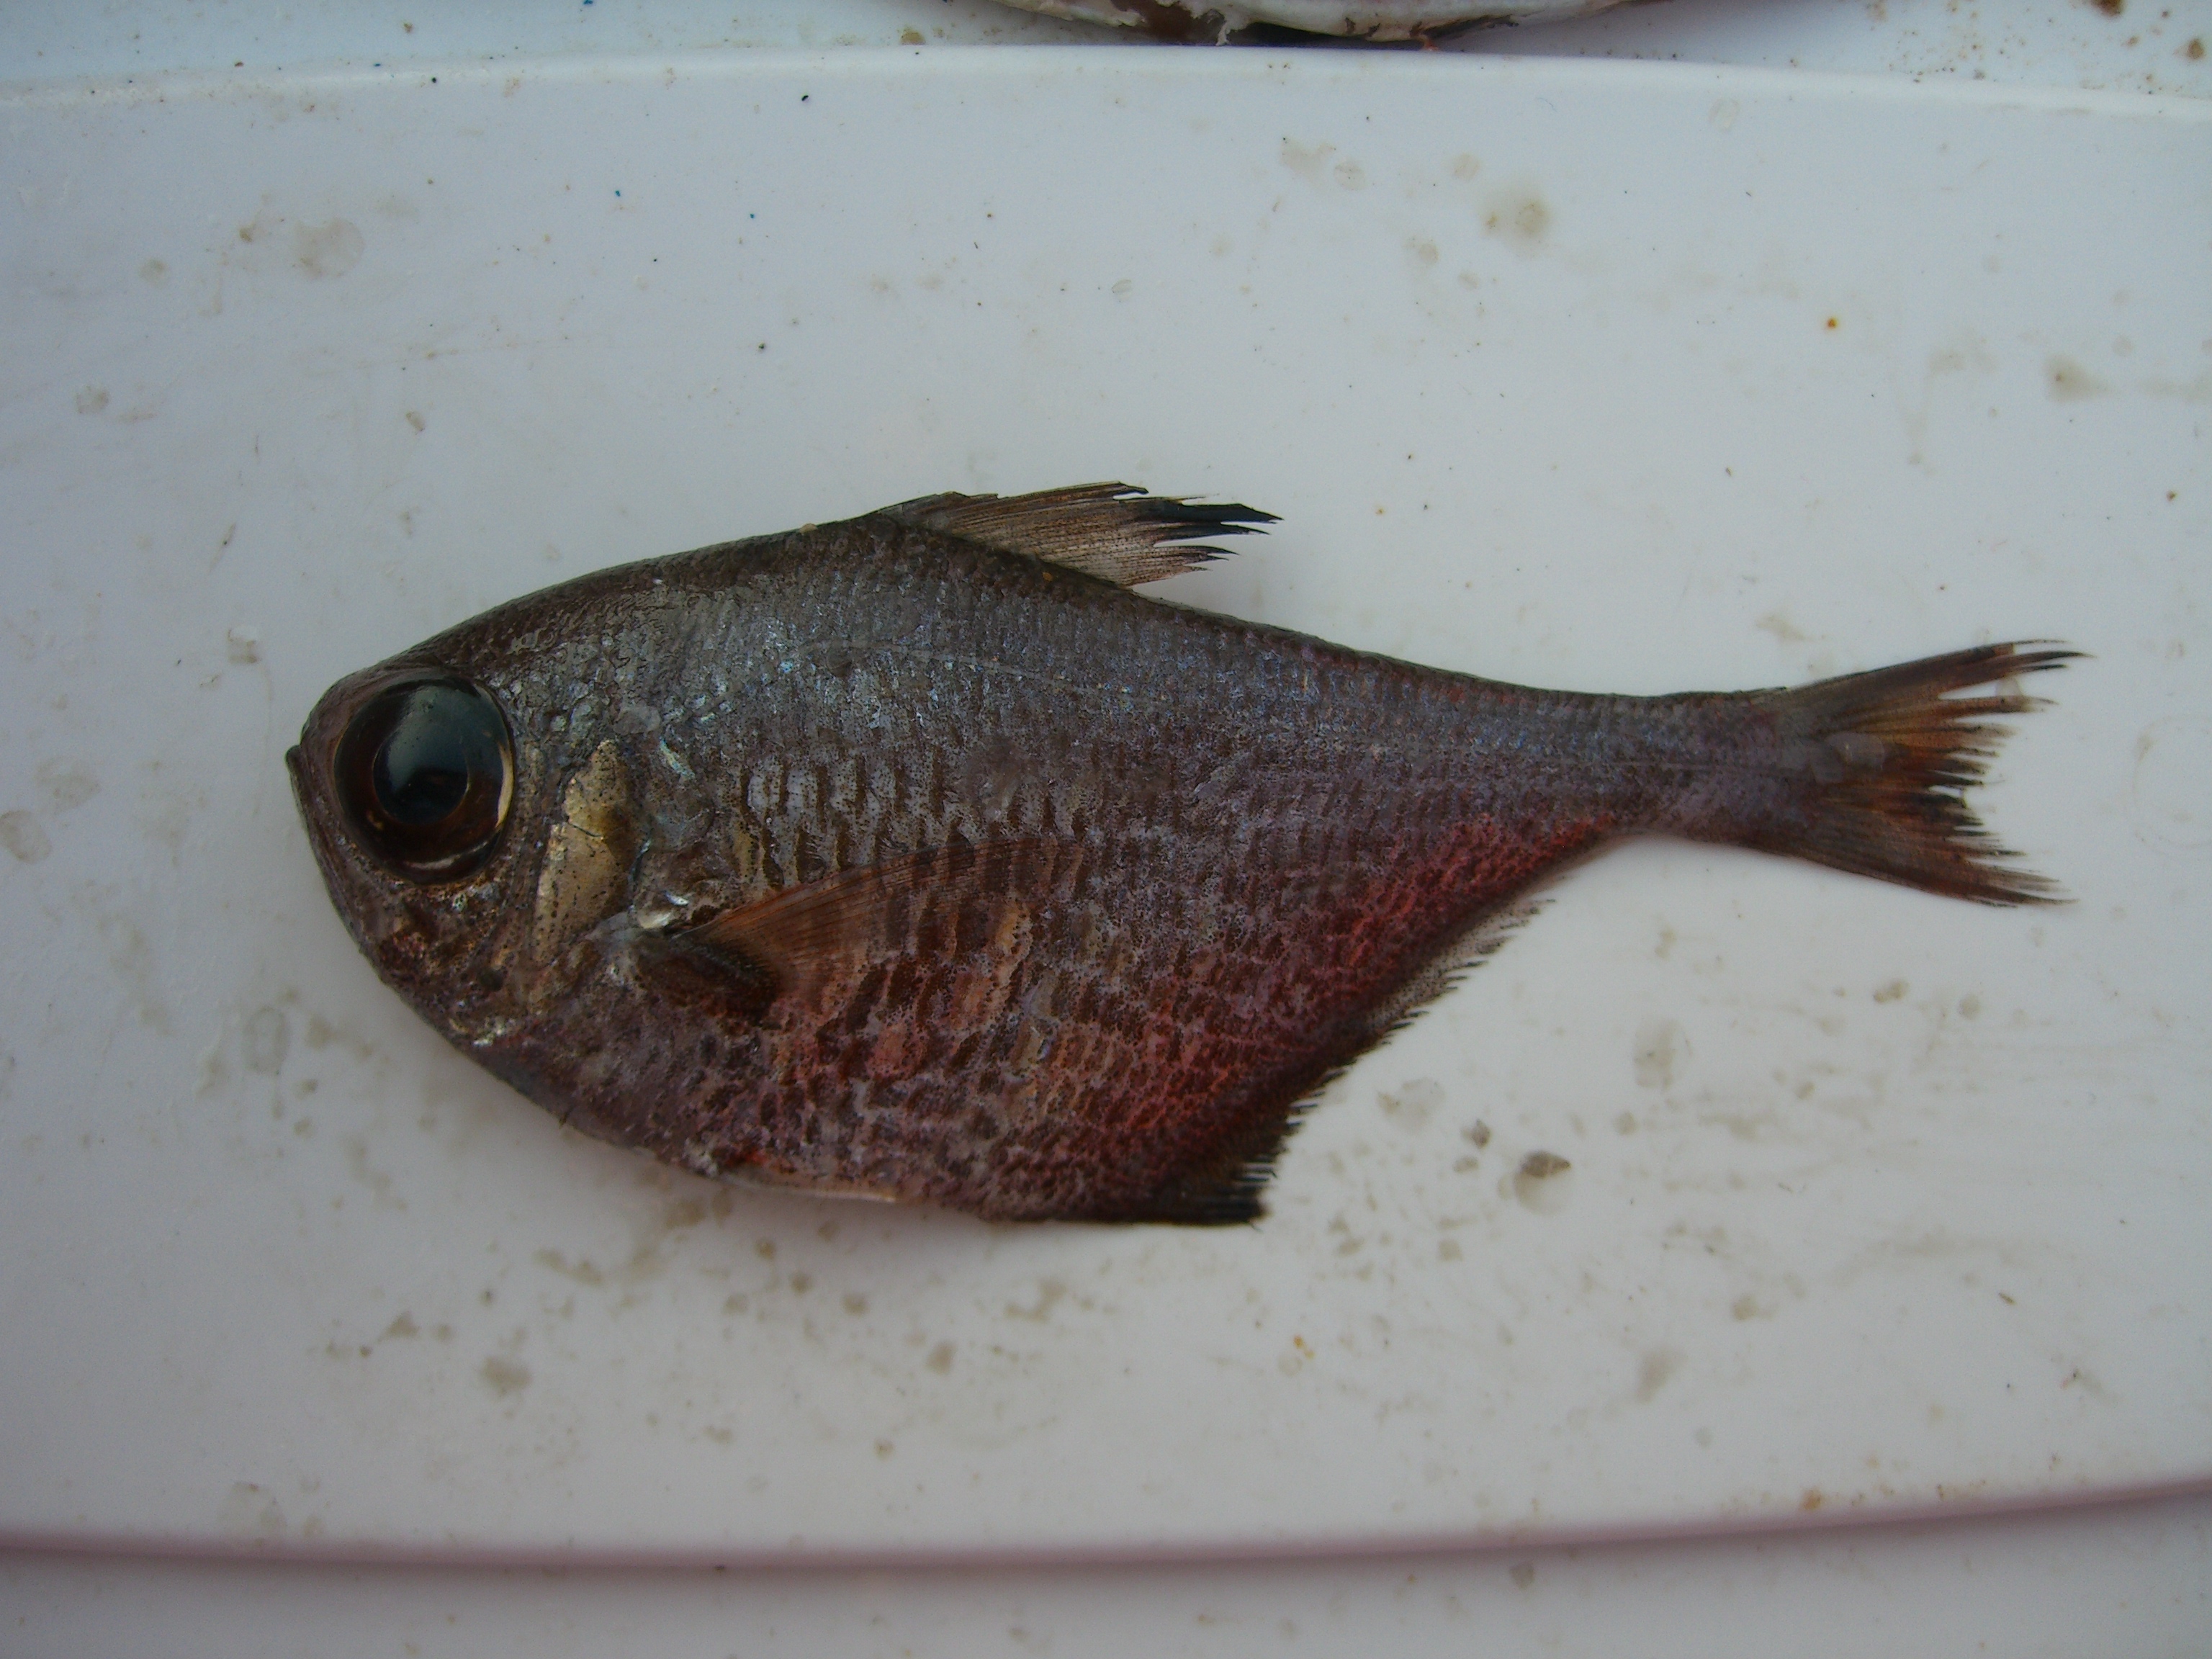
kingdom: Animalia
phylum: Chordata
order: Perciformes
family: Pempheridae
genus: Pempheris
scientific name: Pempheris mangula
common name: Black-edged sweeper
